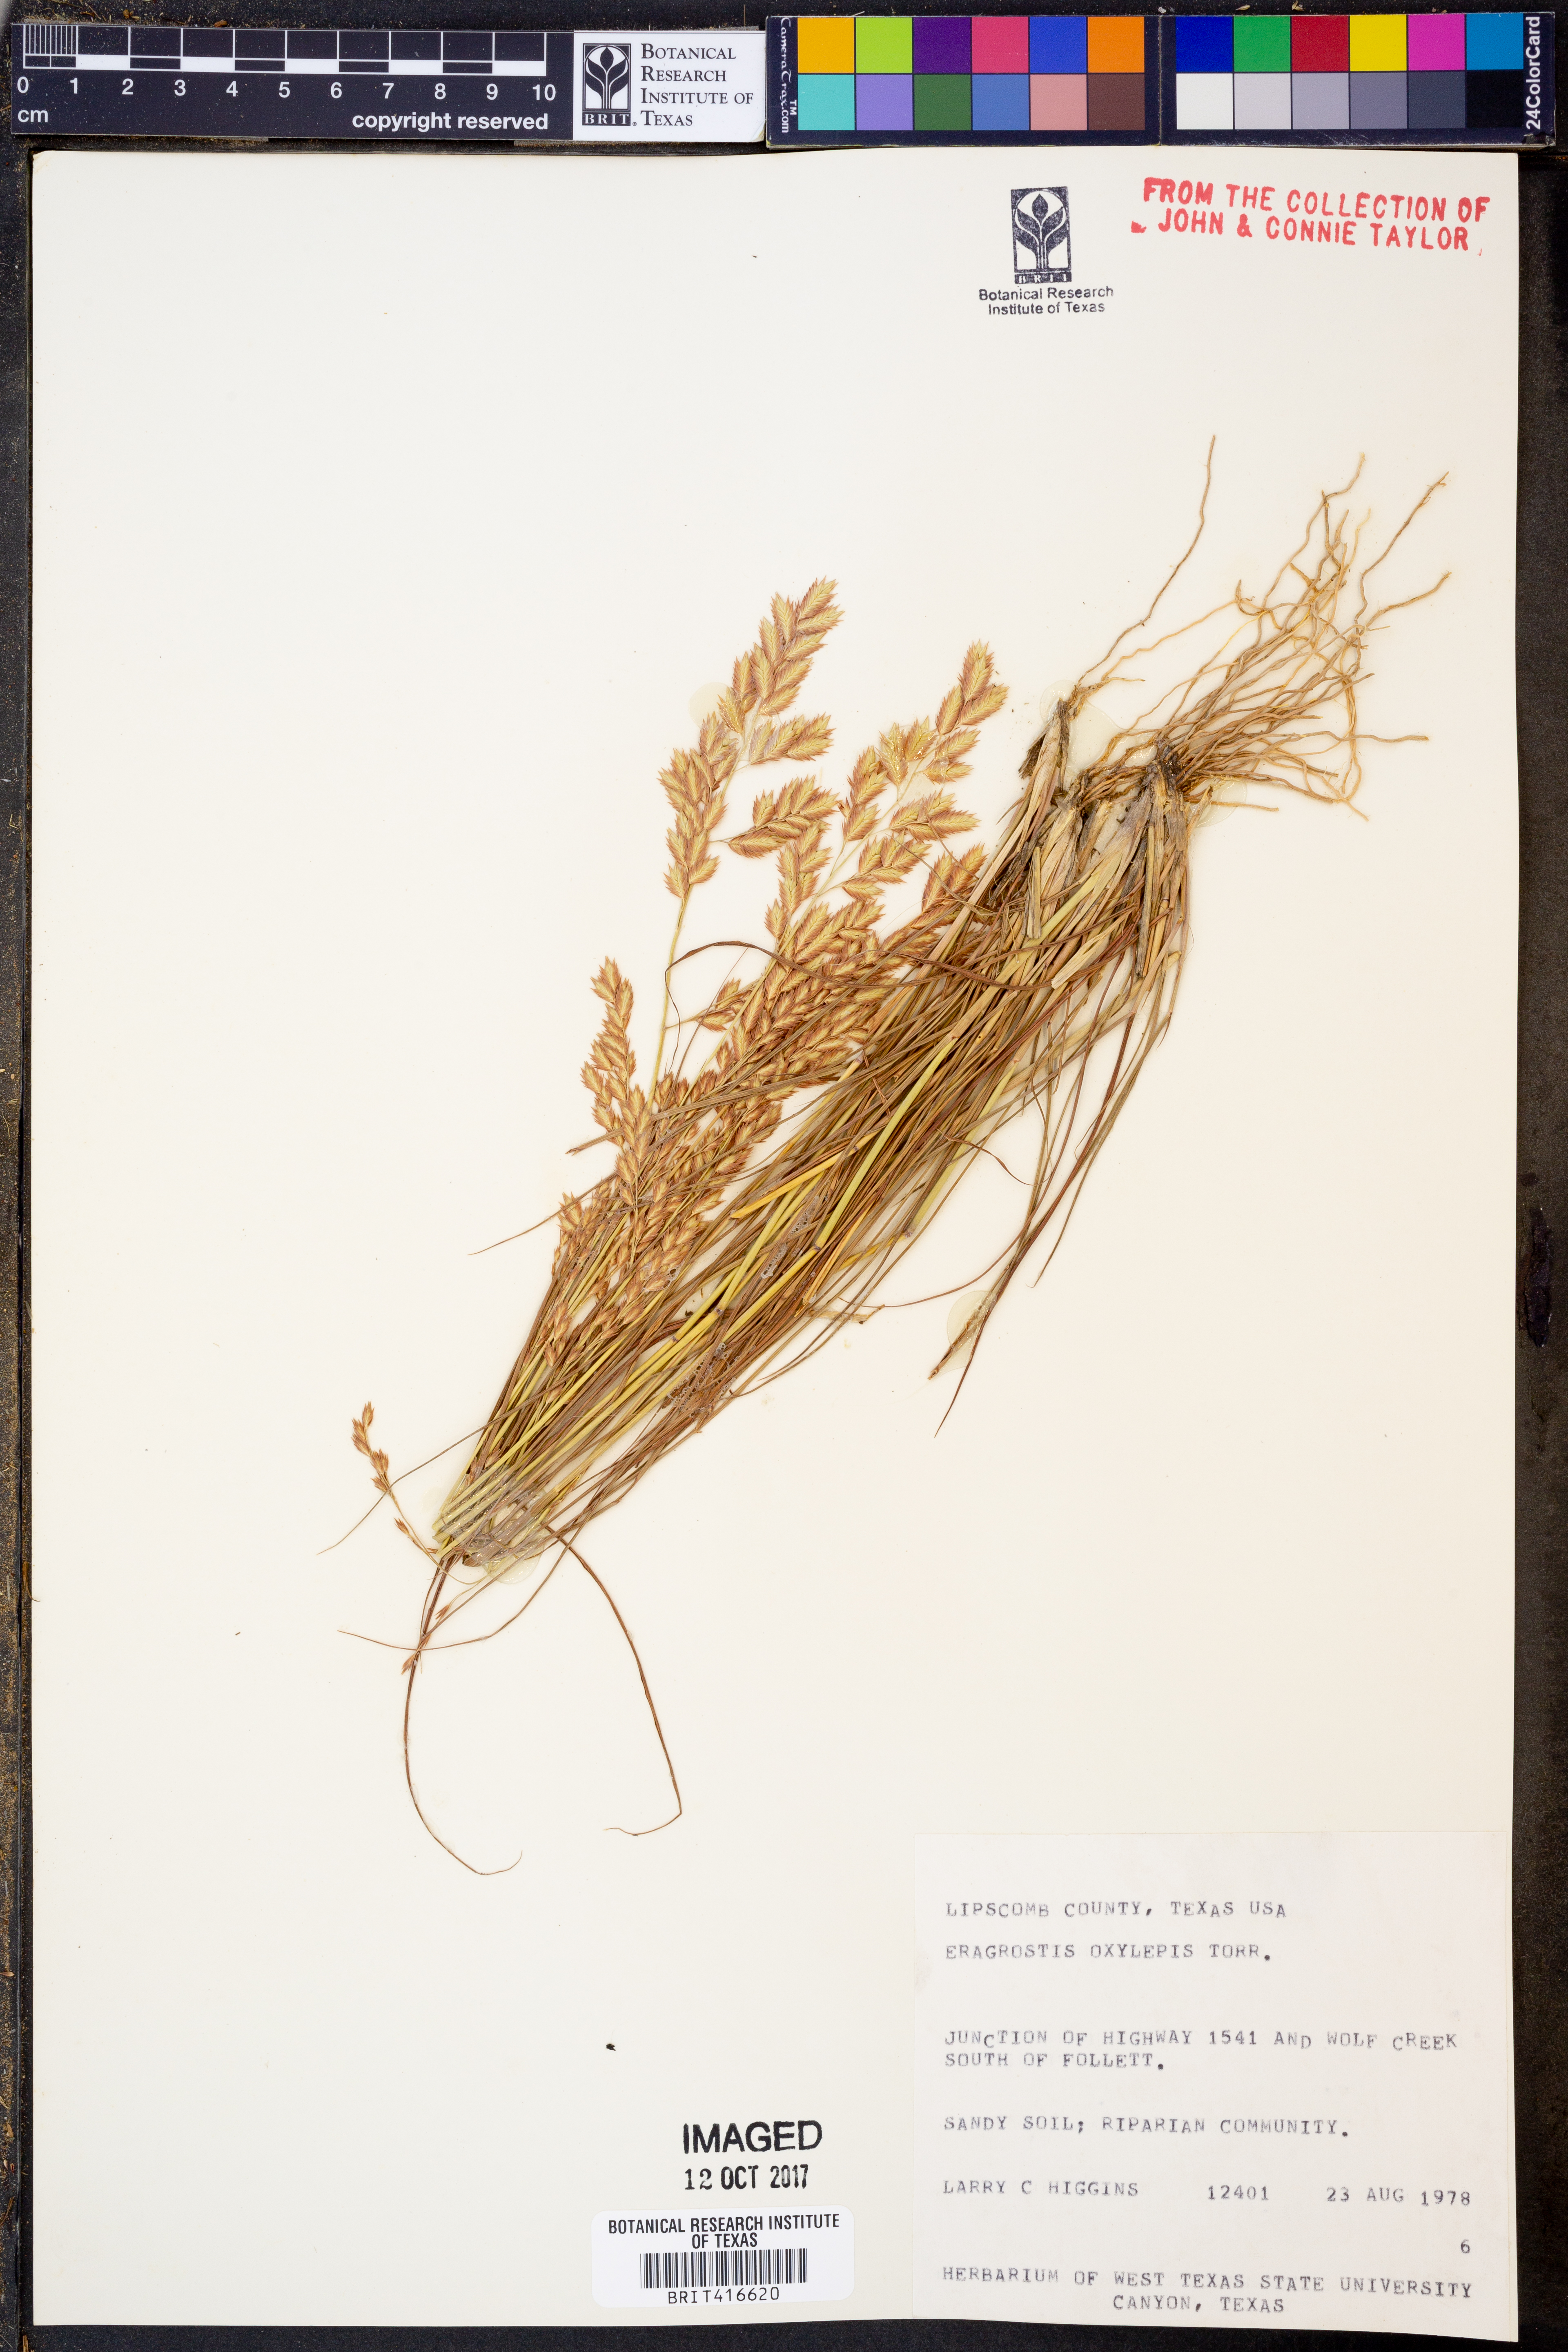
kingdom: Plantae
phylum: Tracheophyta
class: Liliopsida
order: Poales
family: Poaceae
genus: Eragrostis
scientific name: Eragrostis secundiflora
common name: Red love grass
